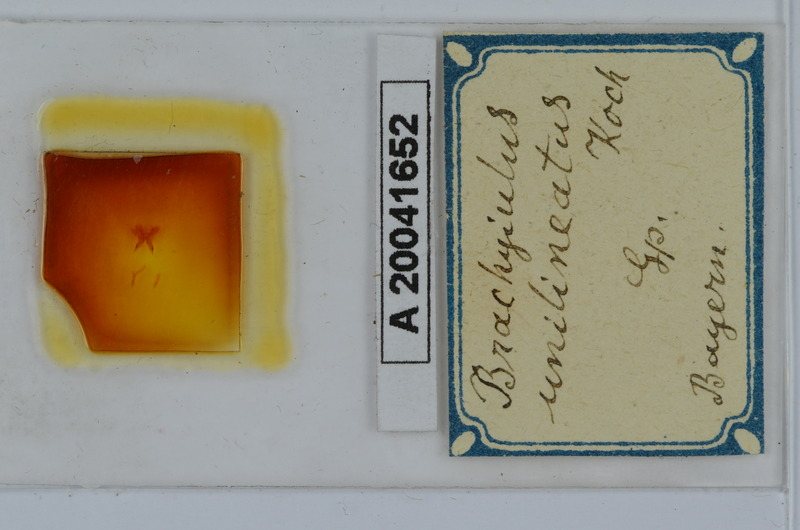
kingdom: Animalia
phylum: Arthropoda
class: Diplopoda
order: Julida
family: Julidae
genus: Brachyiulus
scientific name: Brachyiulus unilineatus
